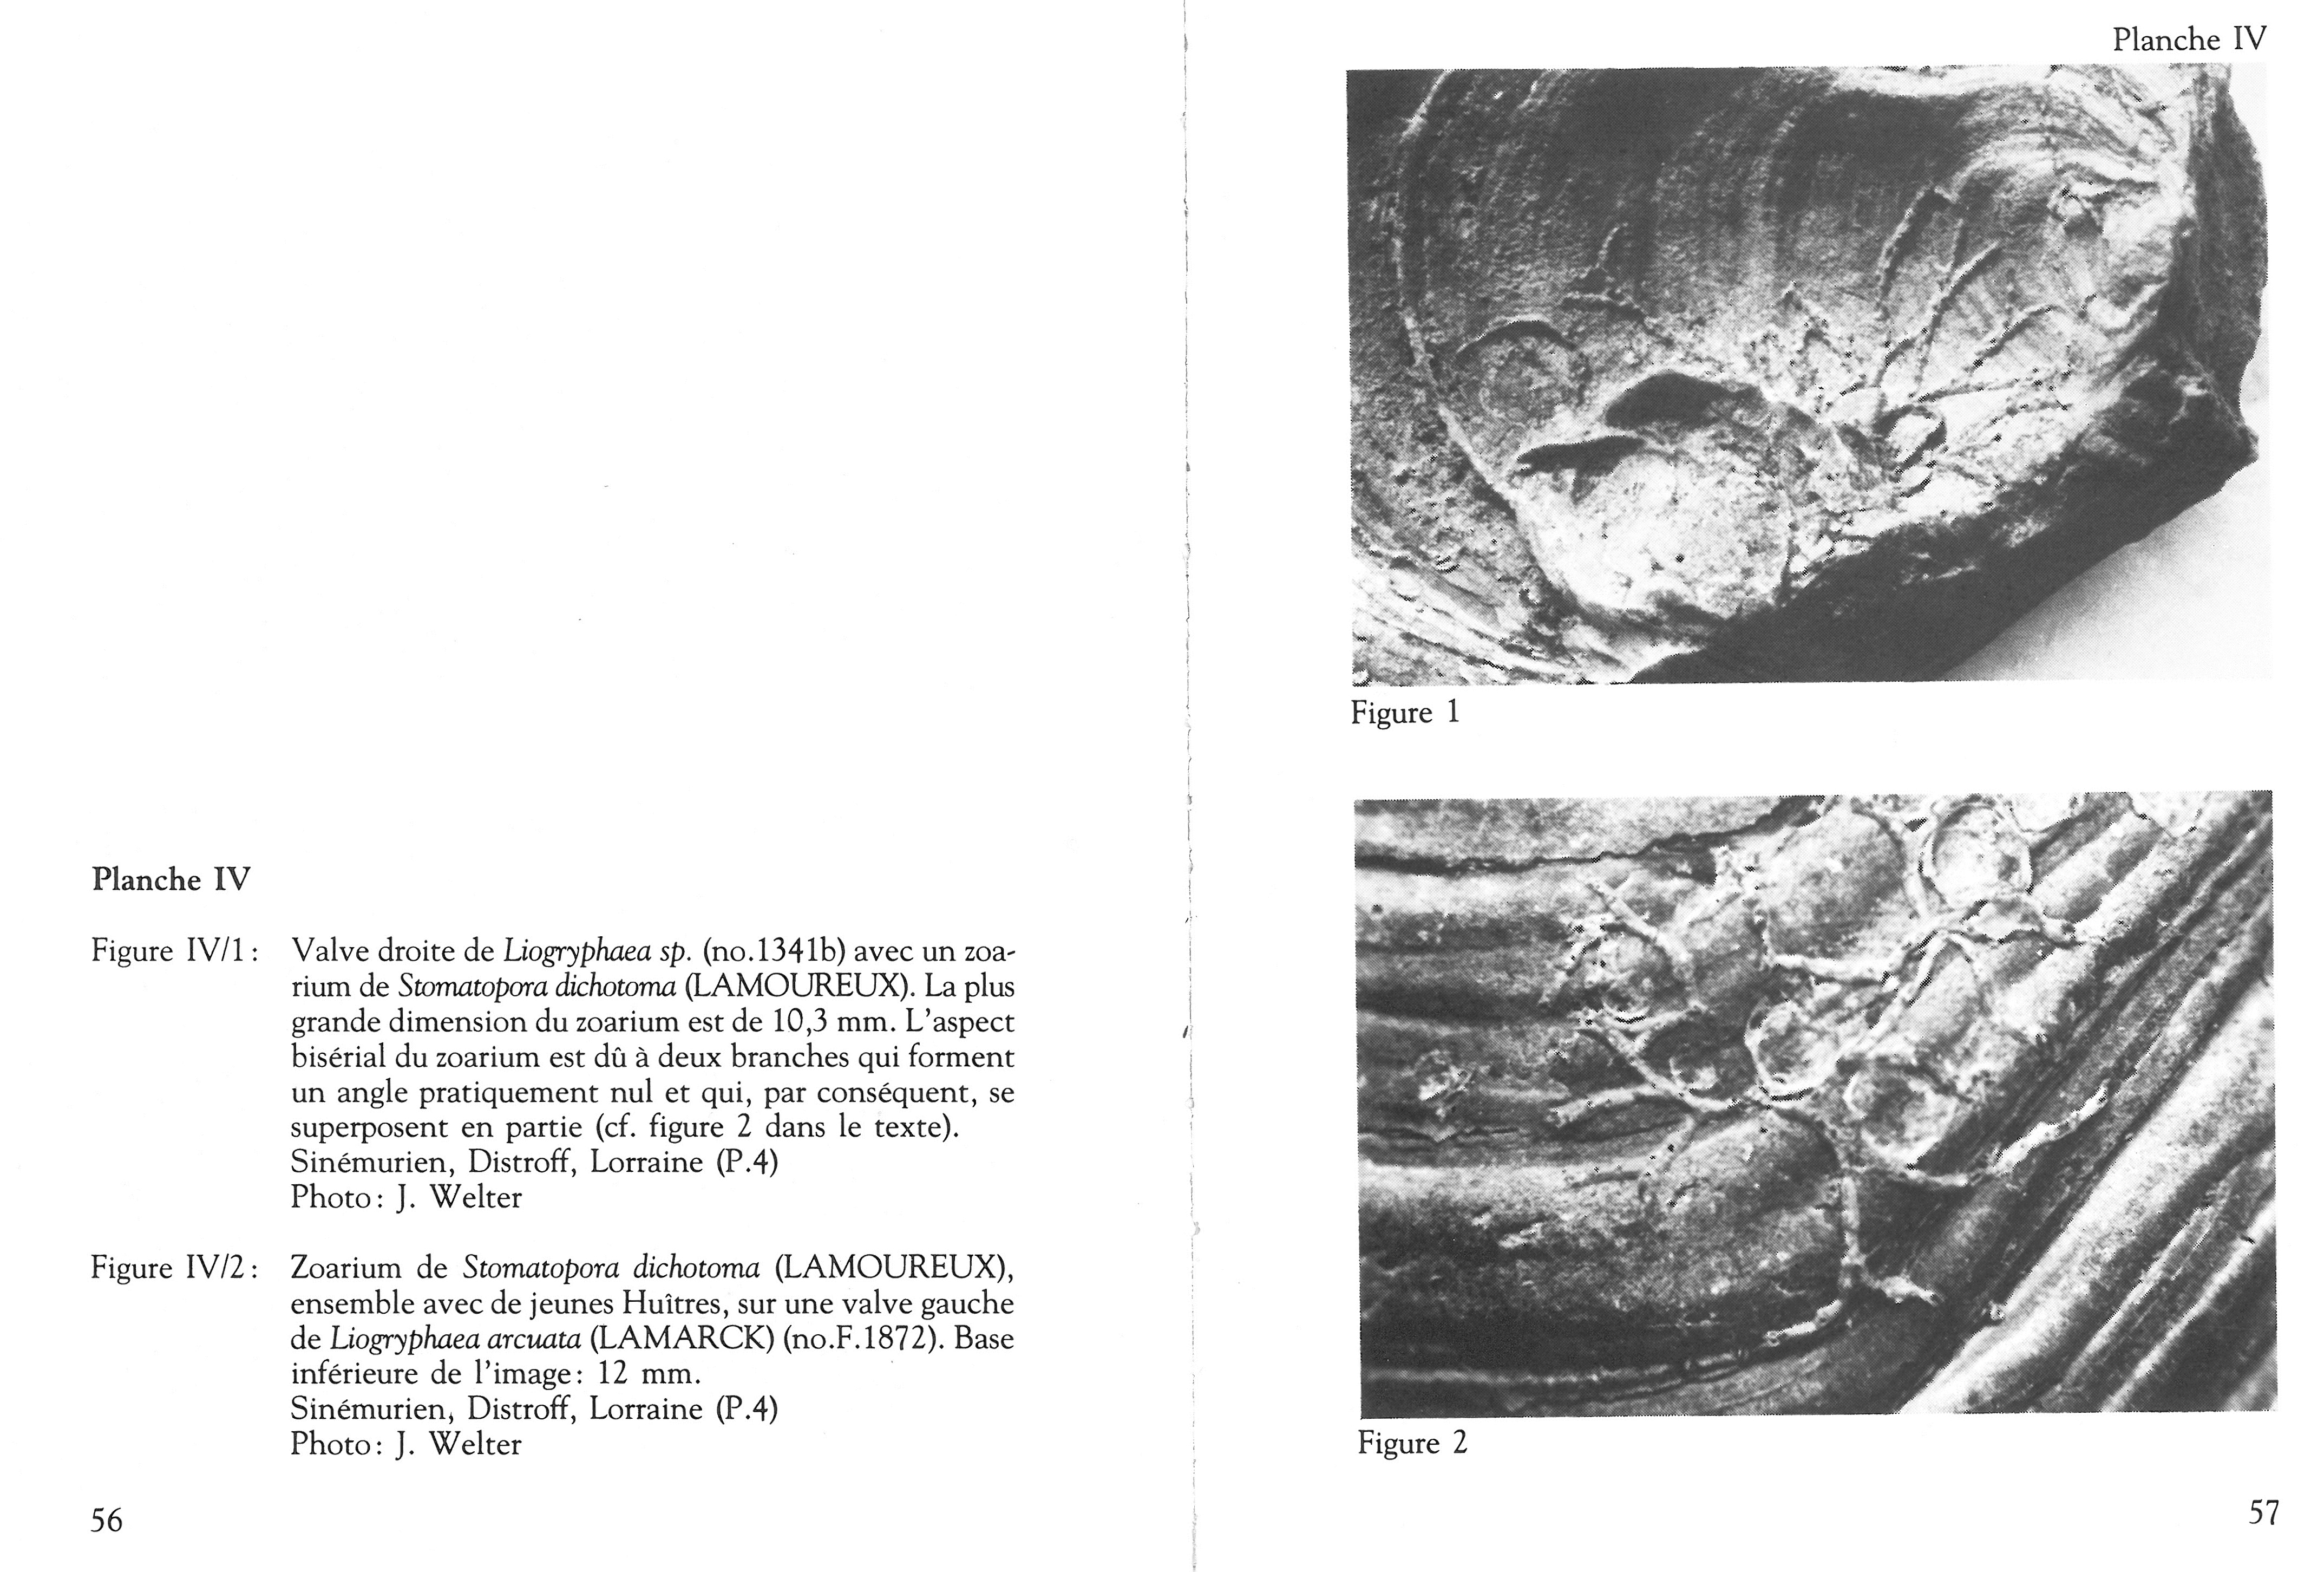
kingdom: Animalia
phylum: Bryozoa
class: Stenolaemata
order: Cyclostomatida
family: Stomatoporidae
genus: Stomatopora
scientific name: Stomatopora dichotoma
